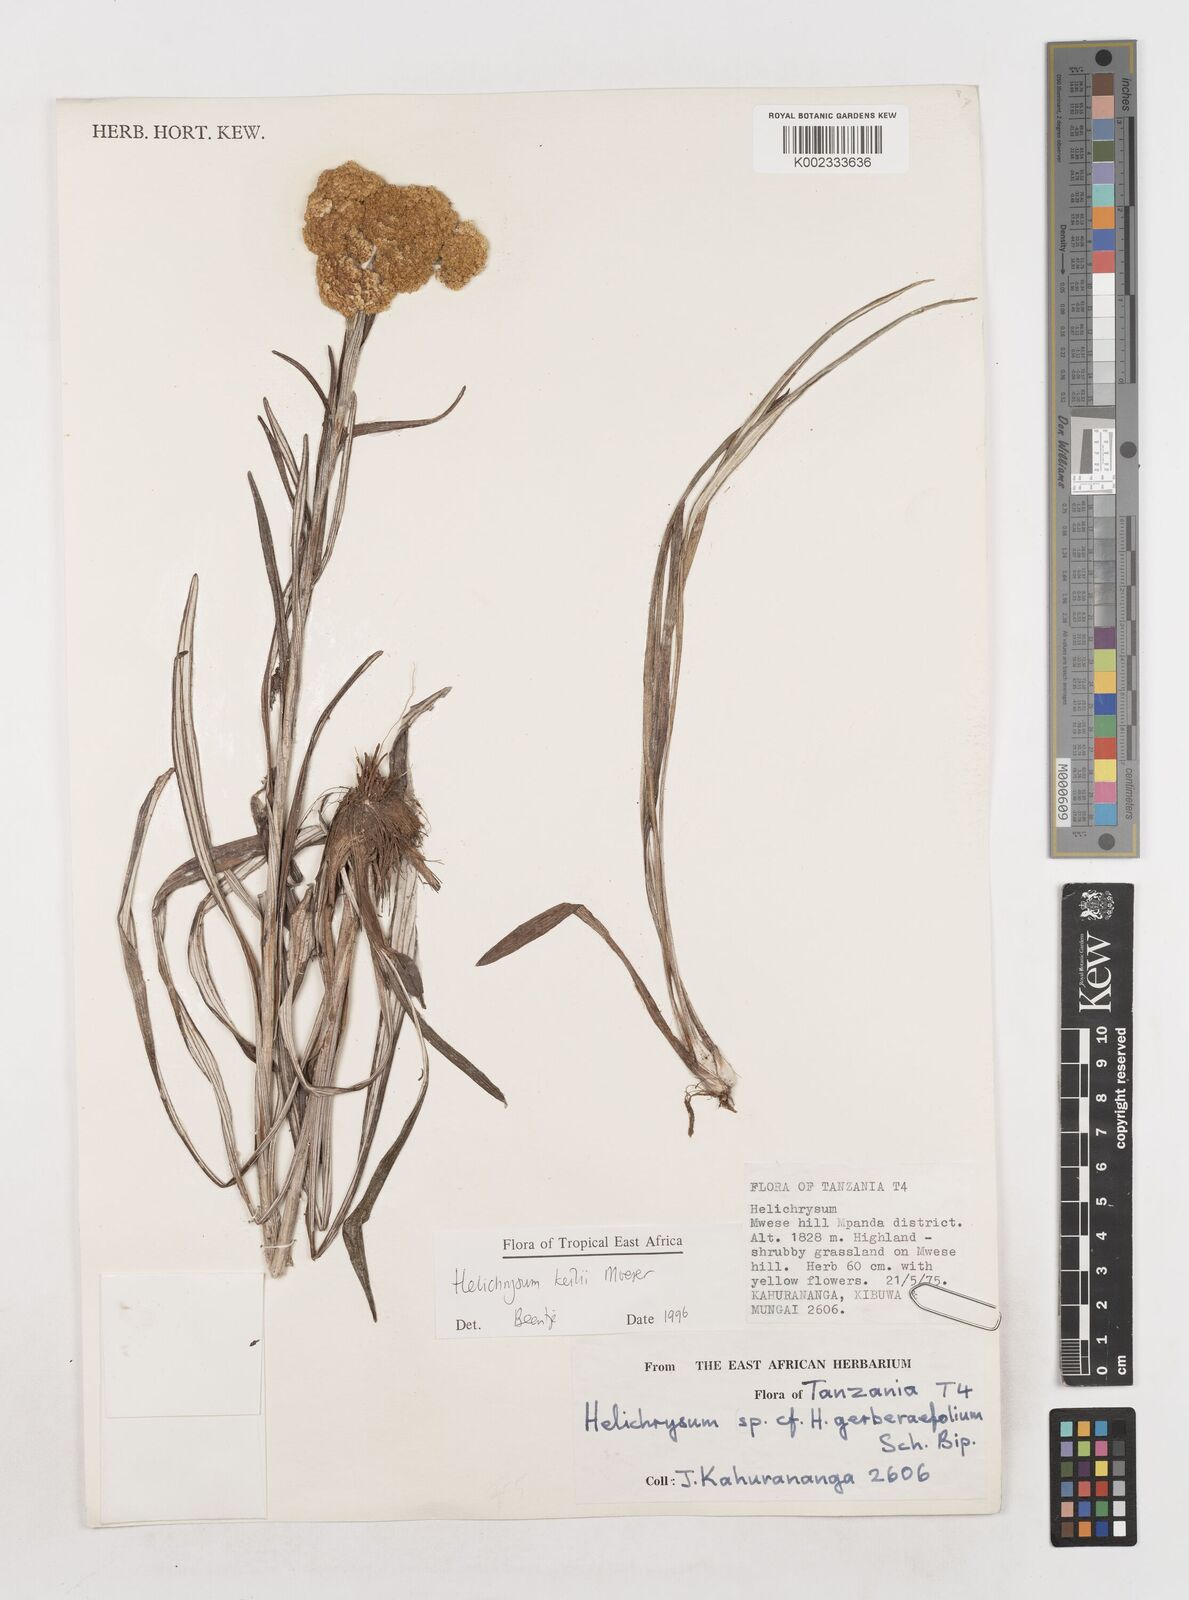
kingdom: Plantae
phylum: Tracheophyta
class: Magnoliopsida
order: Asterales
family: Asteraceae
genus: Helichrysum
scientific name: Helichrysum keilii
